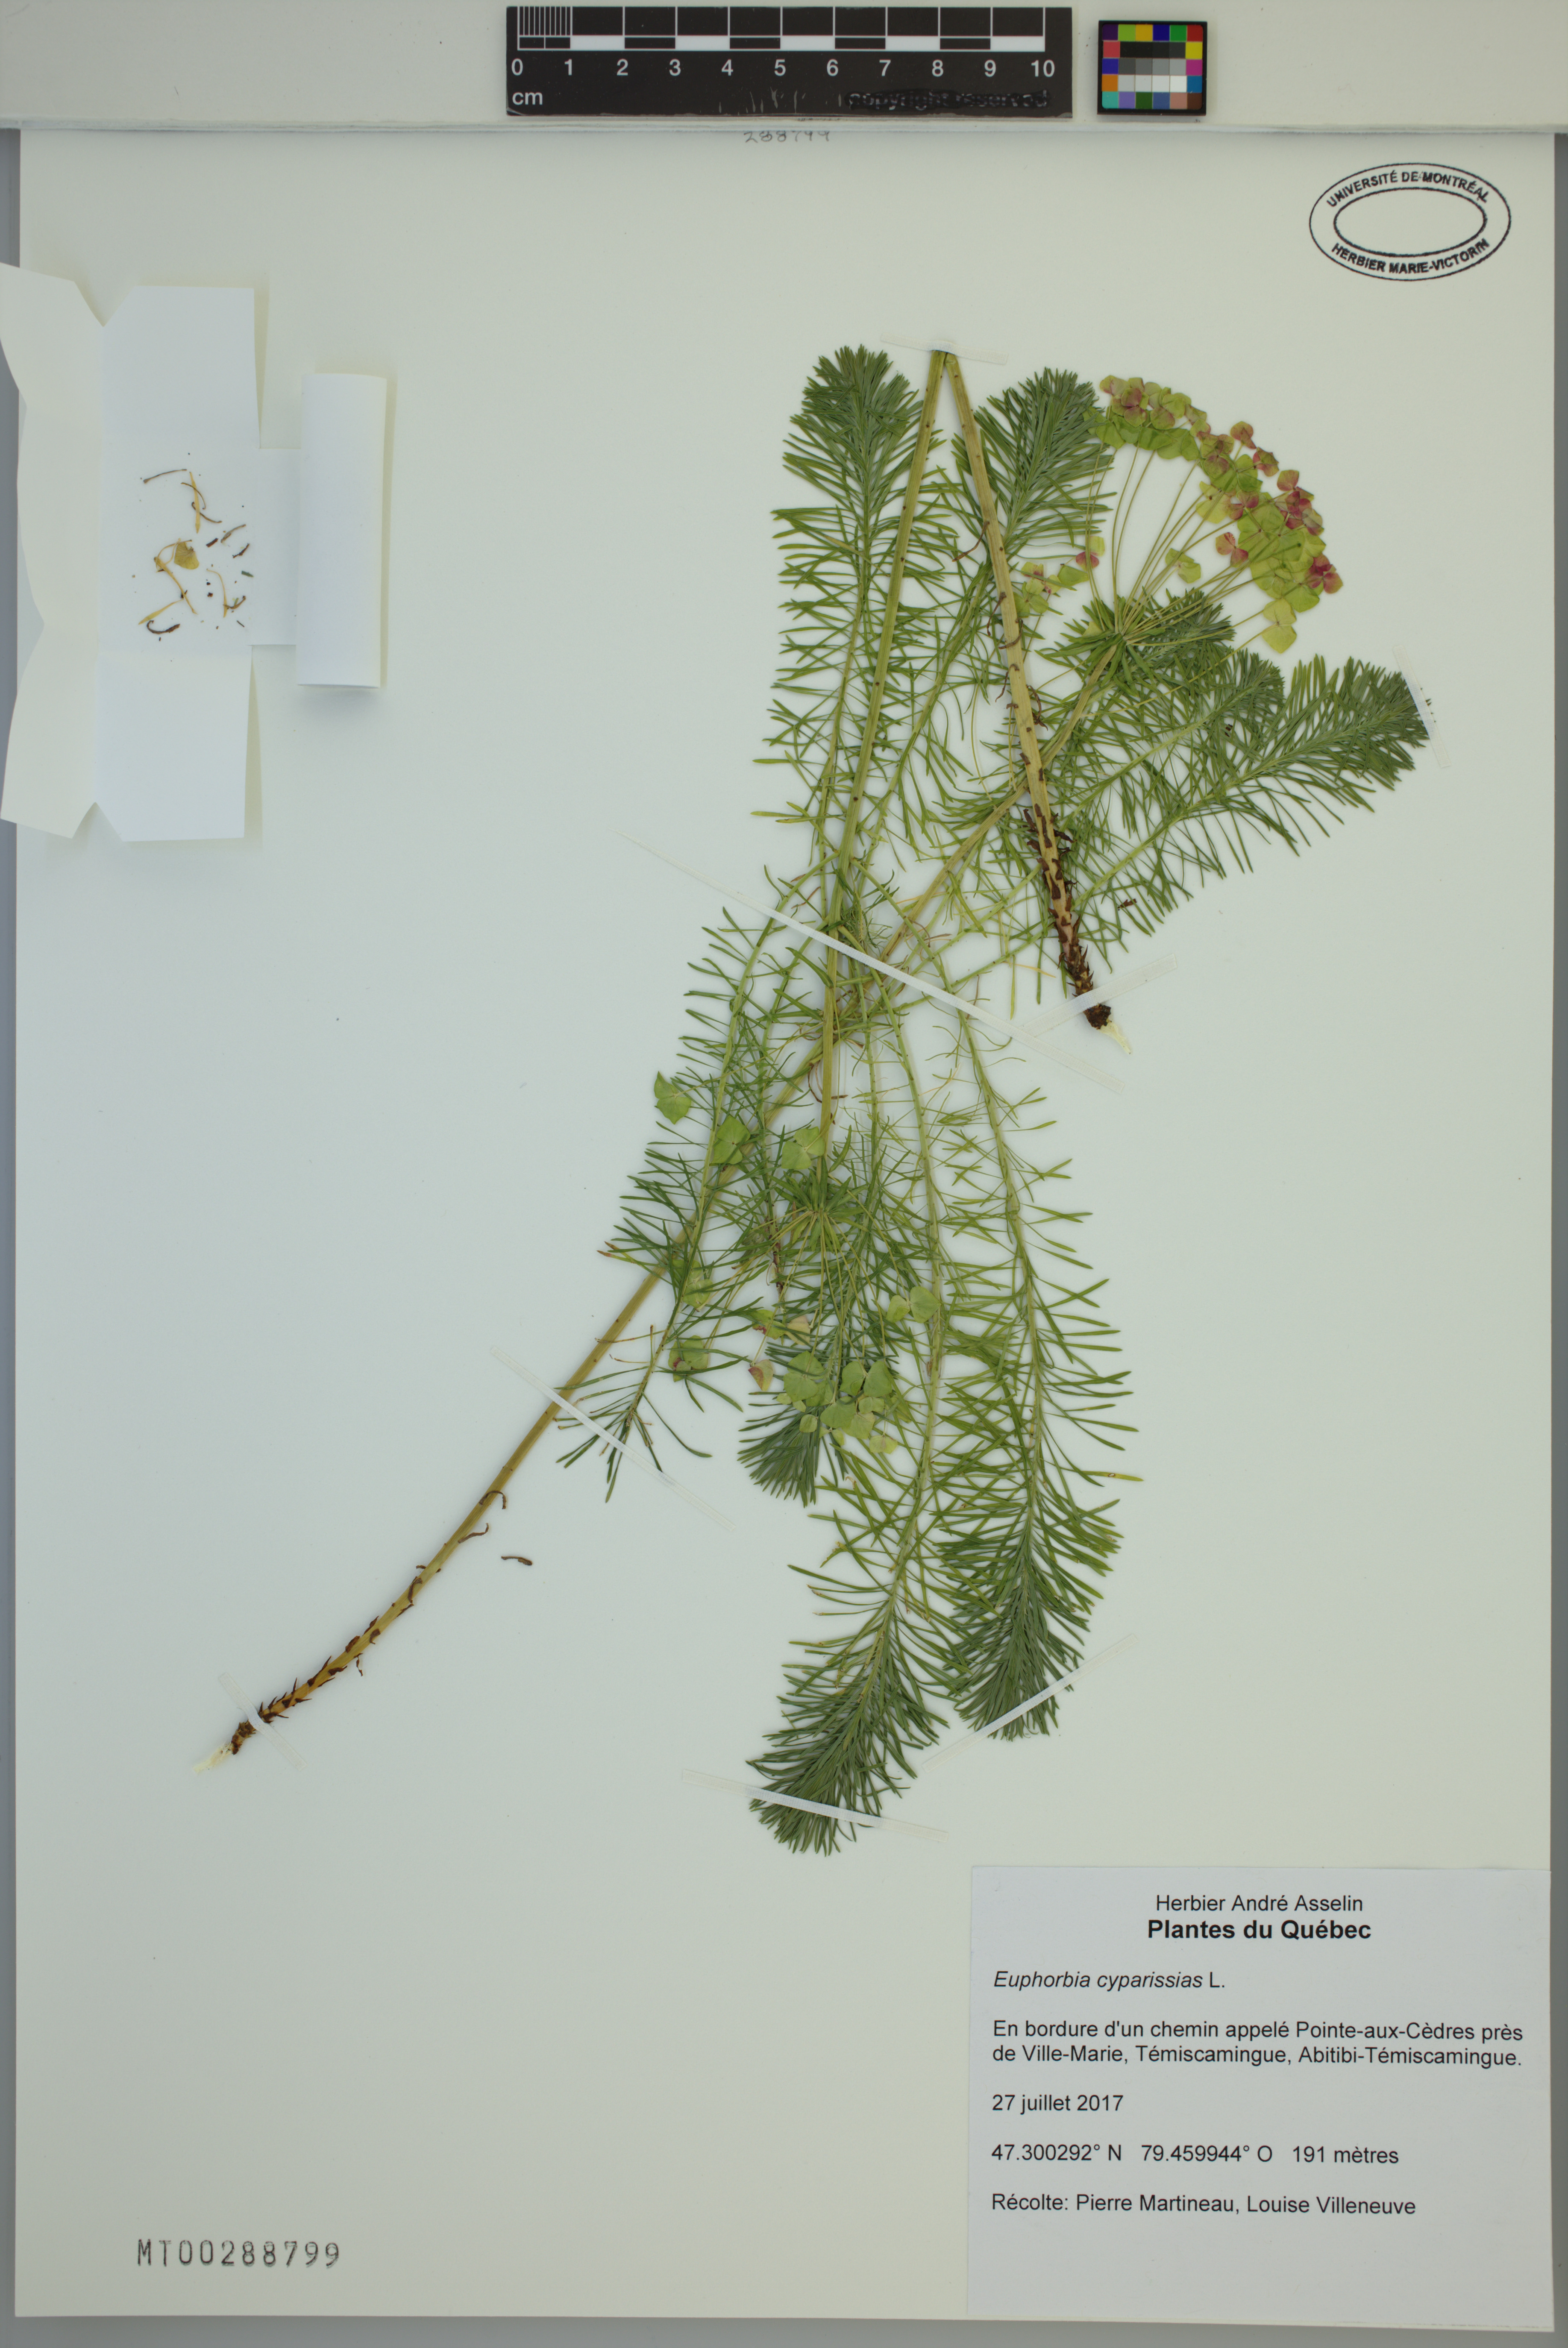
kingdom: Plantae
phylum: Tracheophyta
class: Magnoliopsida
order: Malpighiales
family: Euphorbiaceae
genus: Euphorbia
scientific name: Euphorbia cyparissias
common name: Cypress spurge
